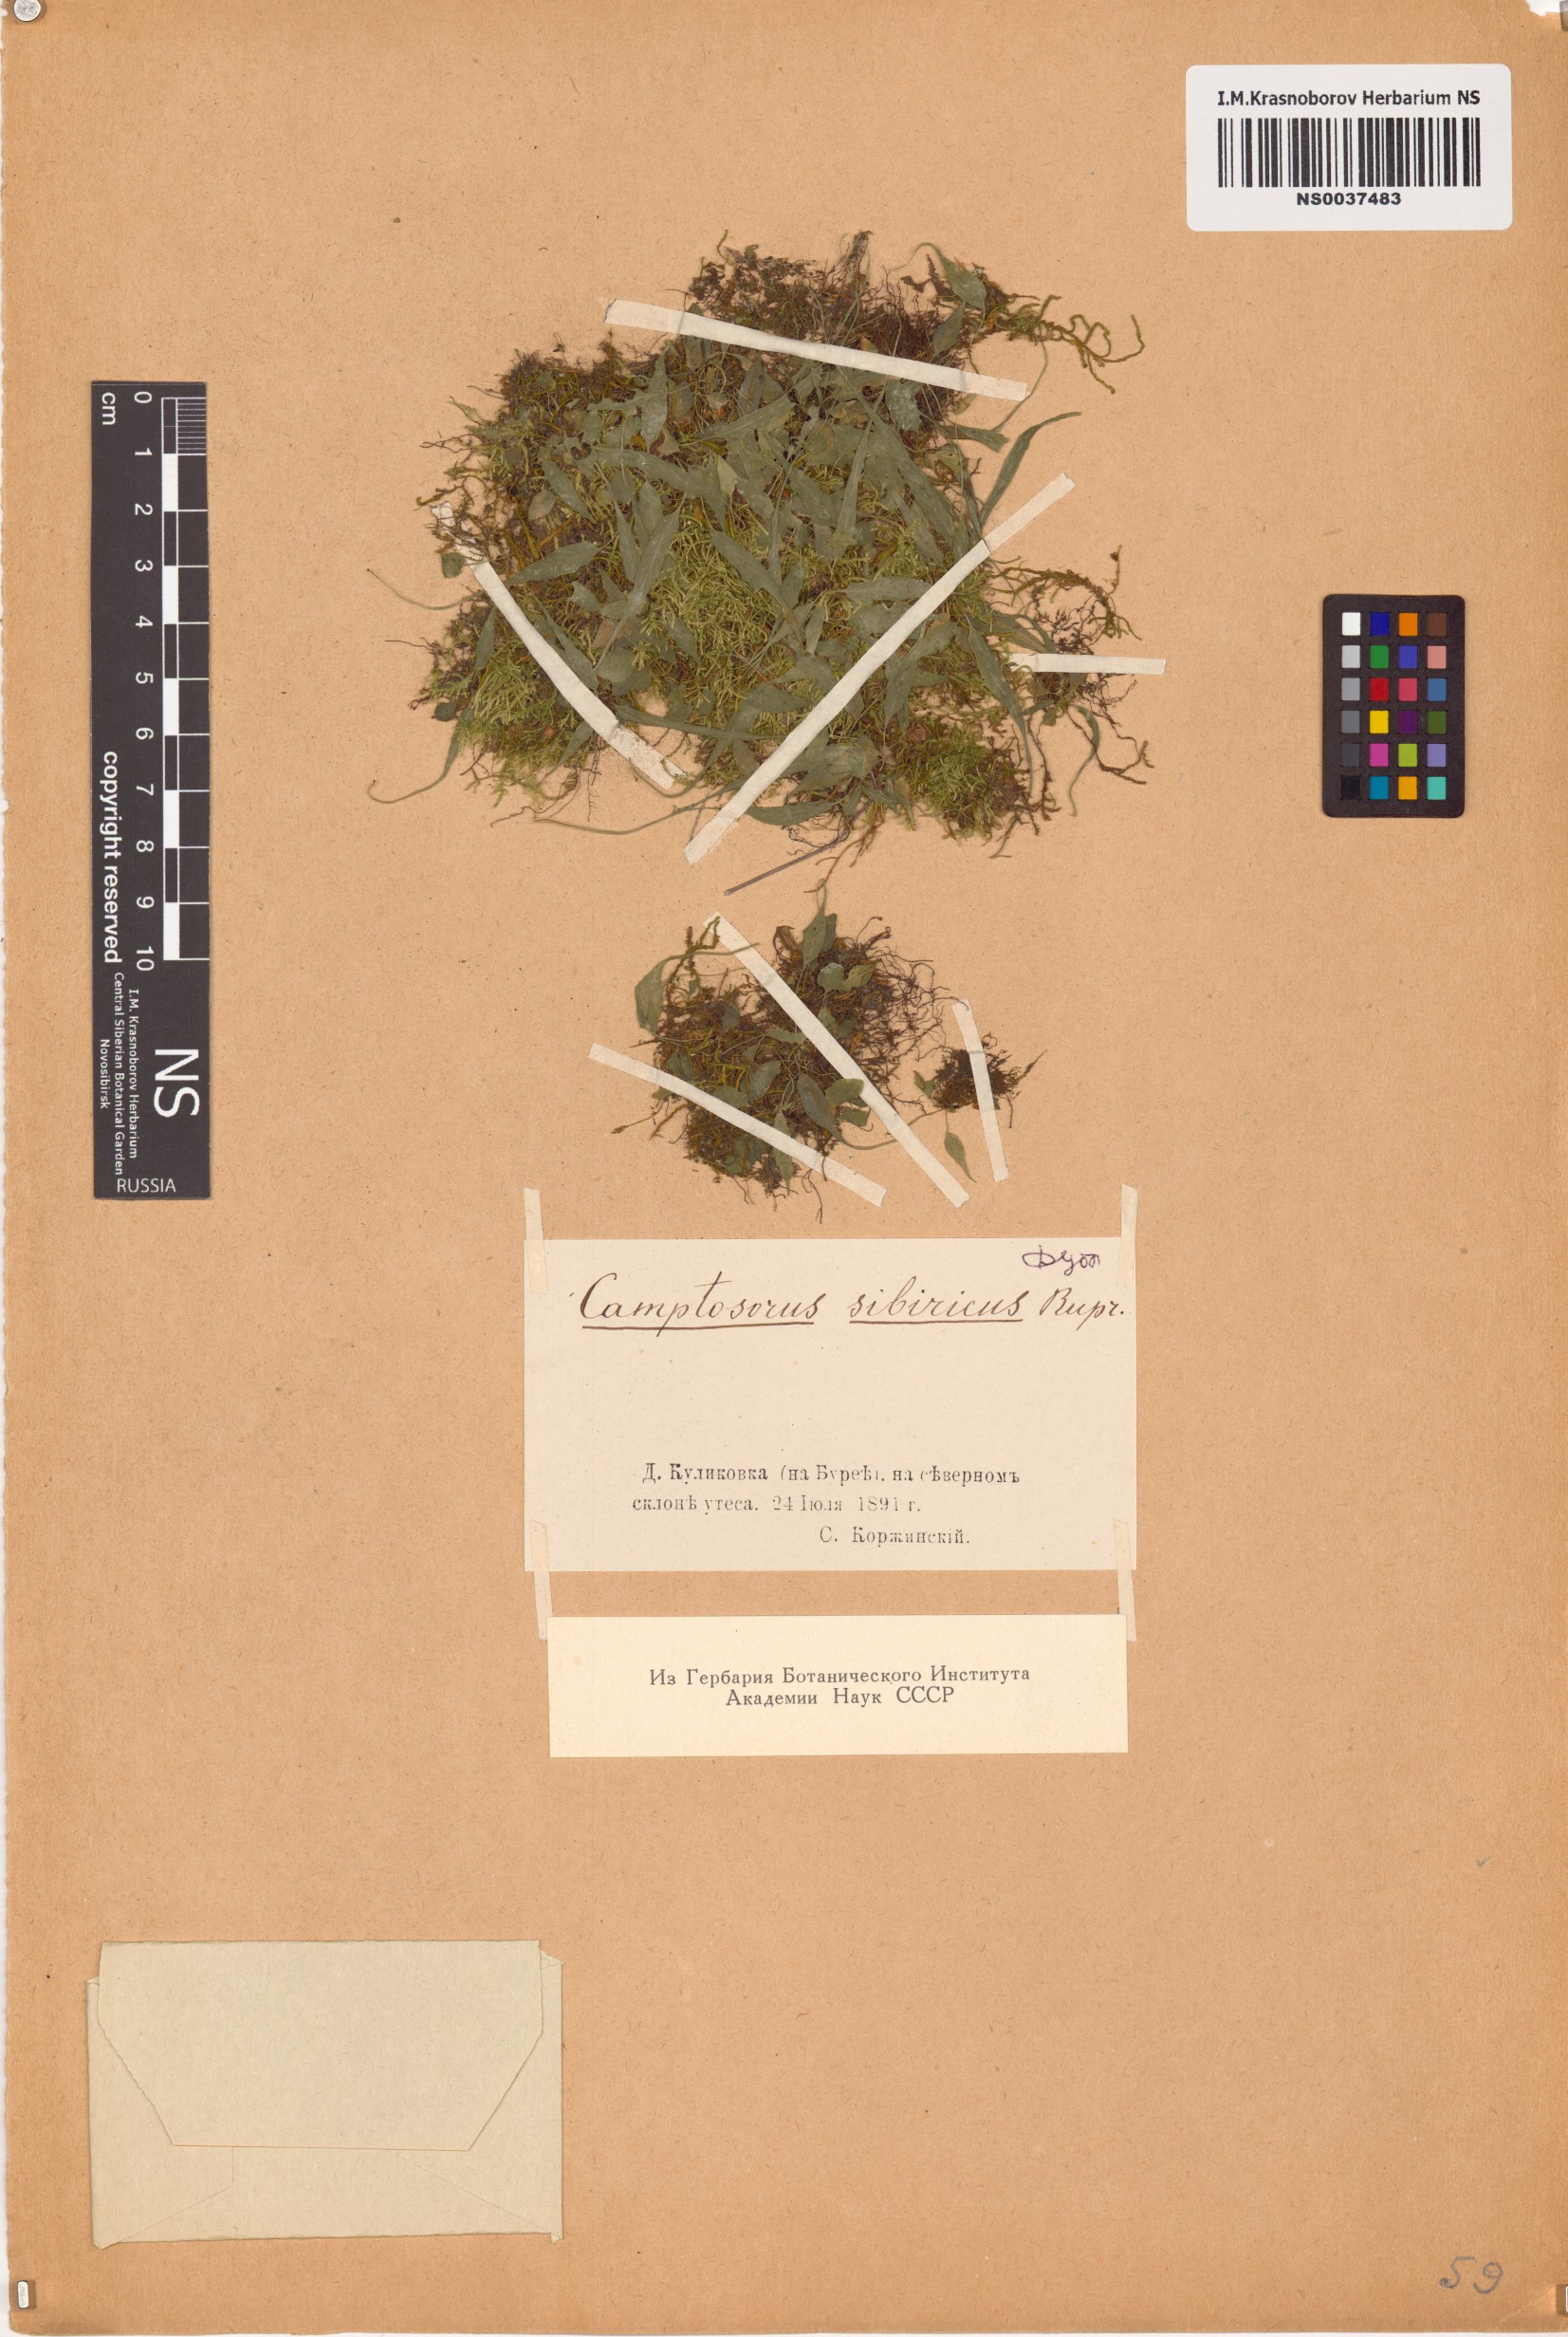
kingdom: Plantae
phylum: Tracheophyta
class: Polypodiopsida
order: Polypodiales
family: Aspleniaceae
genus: Asplenium
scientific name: Asplenium ruprechtii
